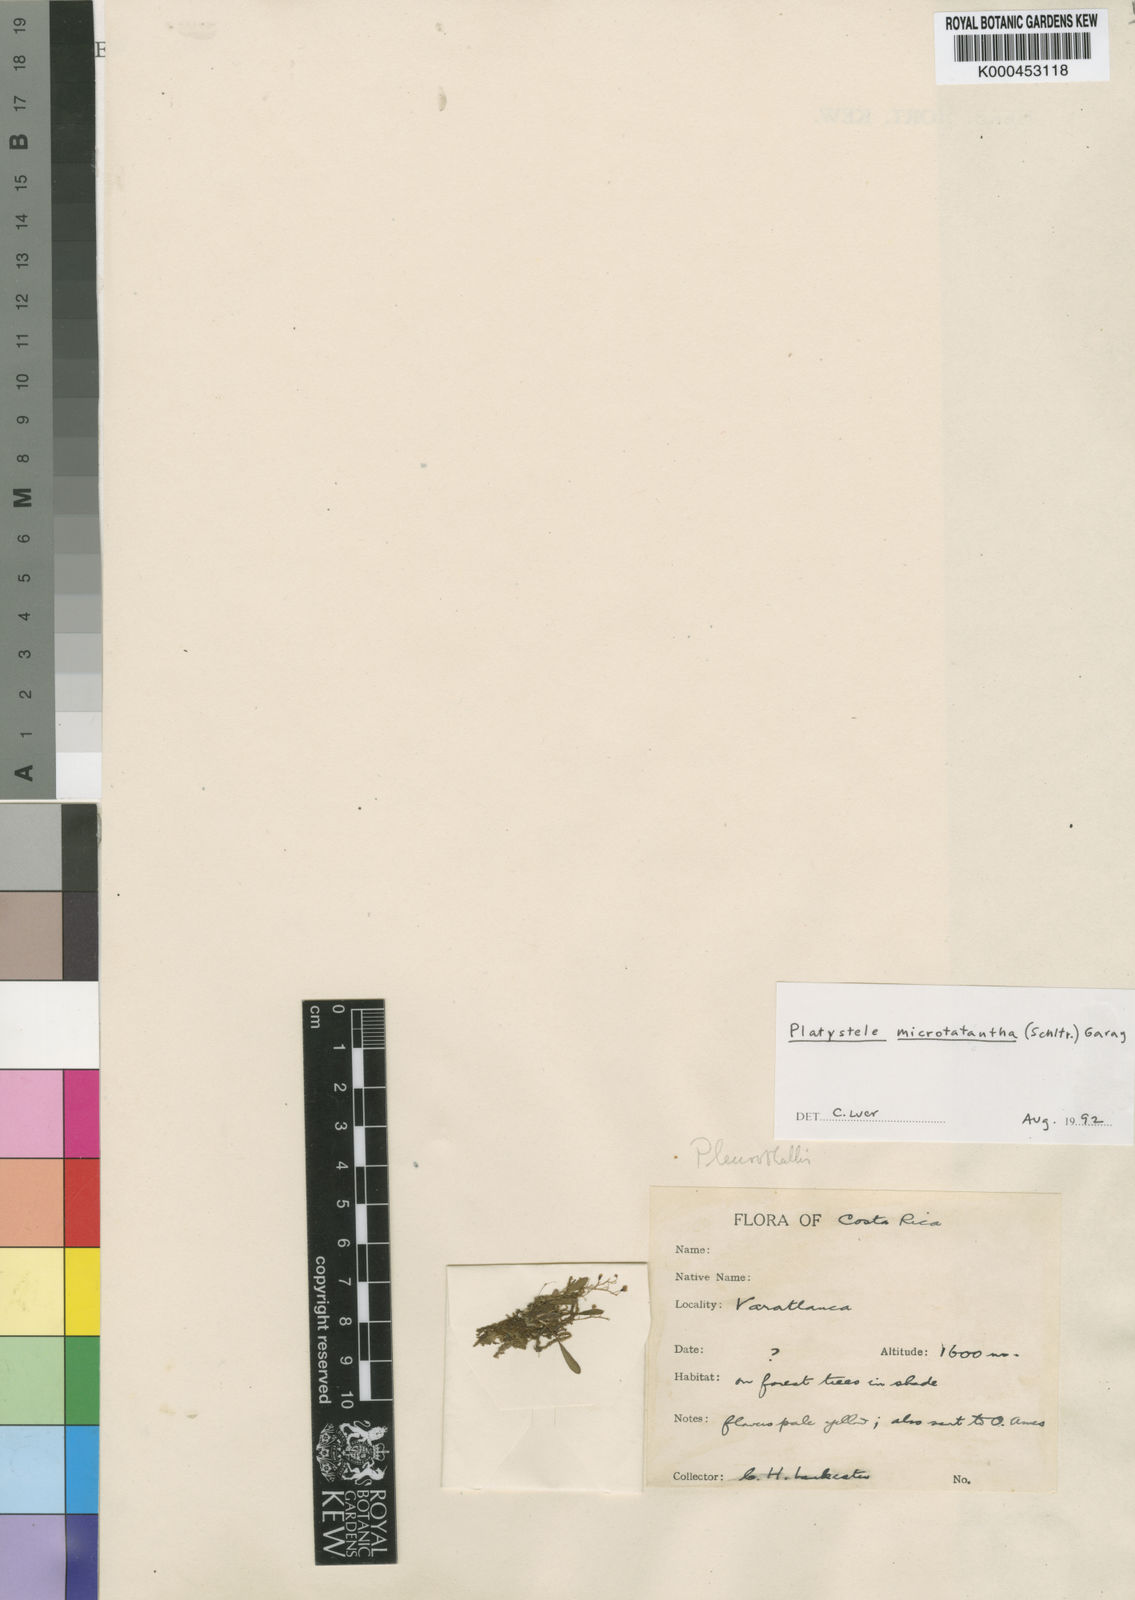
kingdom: Plantae
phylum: Tracheophyta
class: Liliopsida
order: Asparagales
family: Orchidaceae
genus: Platystele
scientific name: Platystele microtatantha
